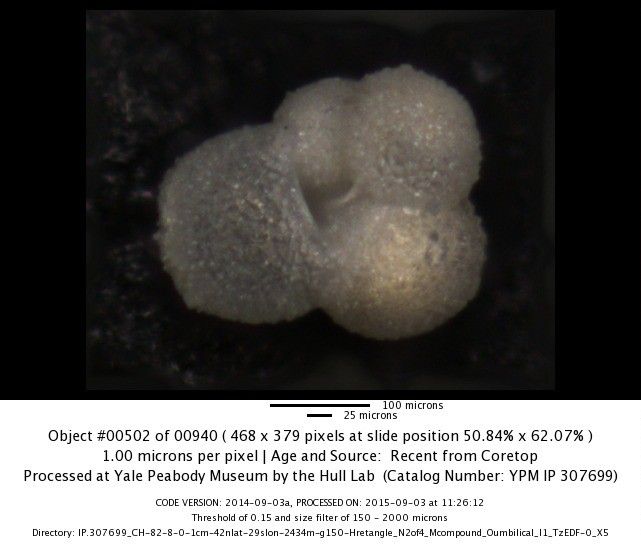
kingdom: Chromista
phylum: Foraminifera
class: Globothalamea
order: Rotaliida
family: Globigerinidae
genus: Globigerina
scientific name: Globigerina falconensis
